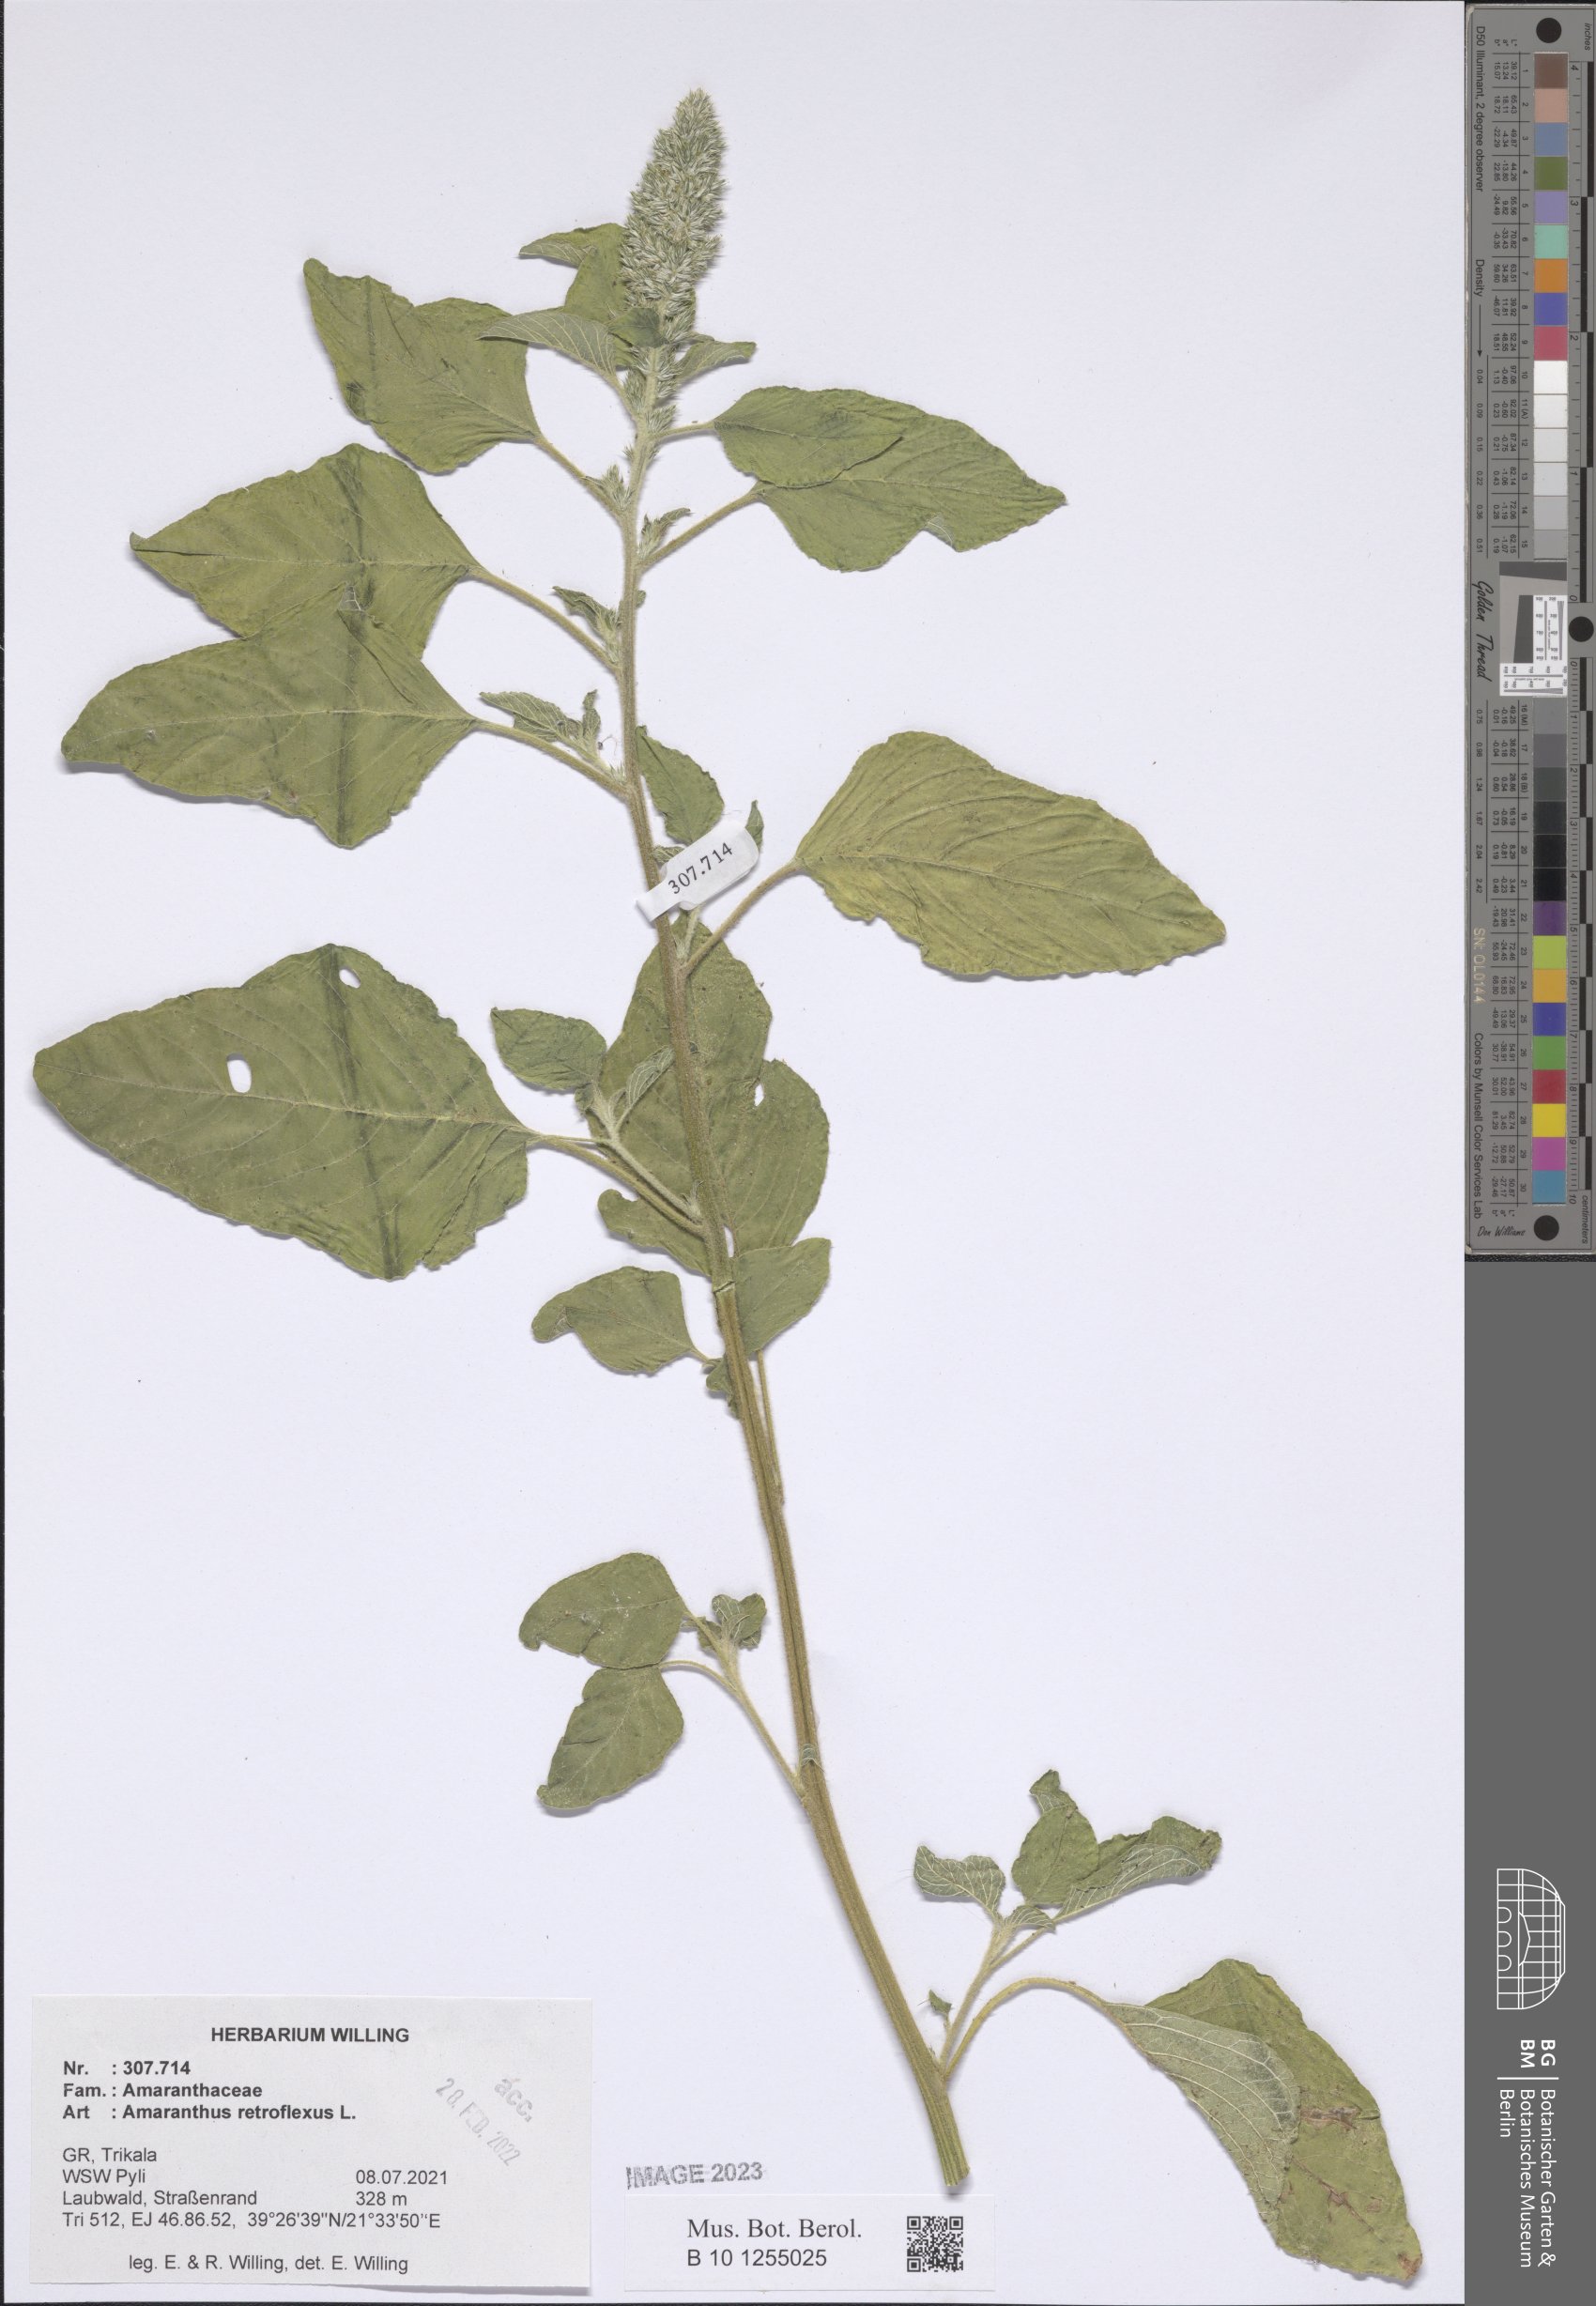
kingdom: Plantae
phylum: Tracheophyta
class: Magnoliopsida
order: Caryophyllales
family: Amaranthaceae
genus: Amaranthus
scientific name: Amaranthus retroflexus
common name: Redroot amaranth
